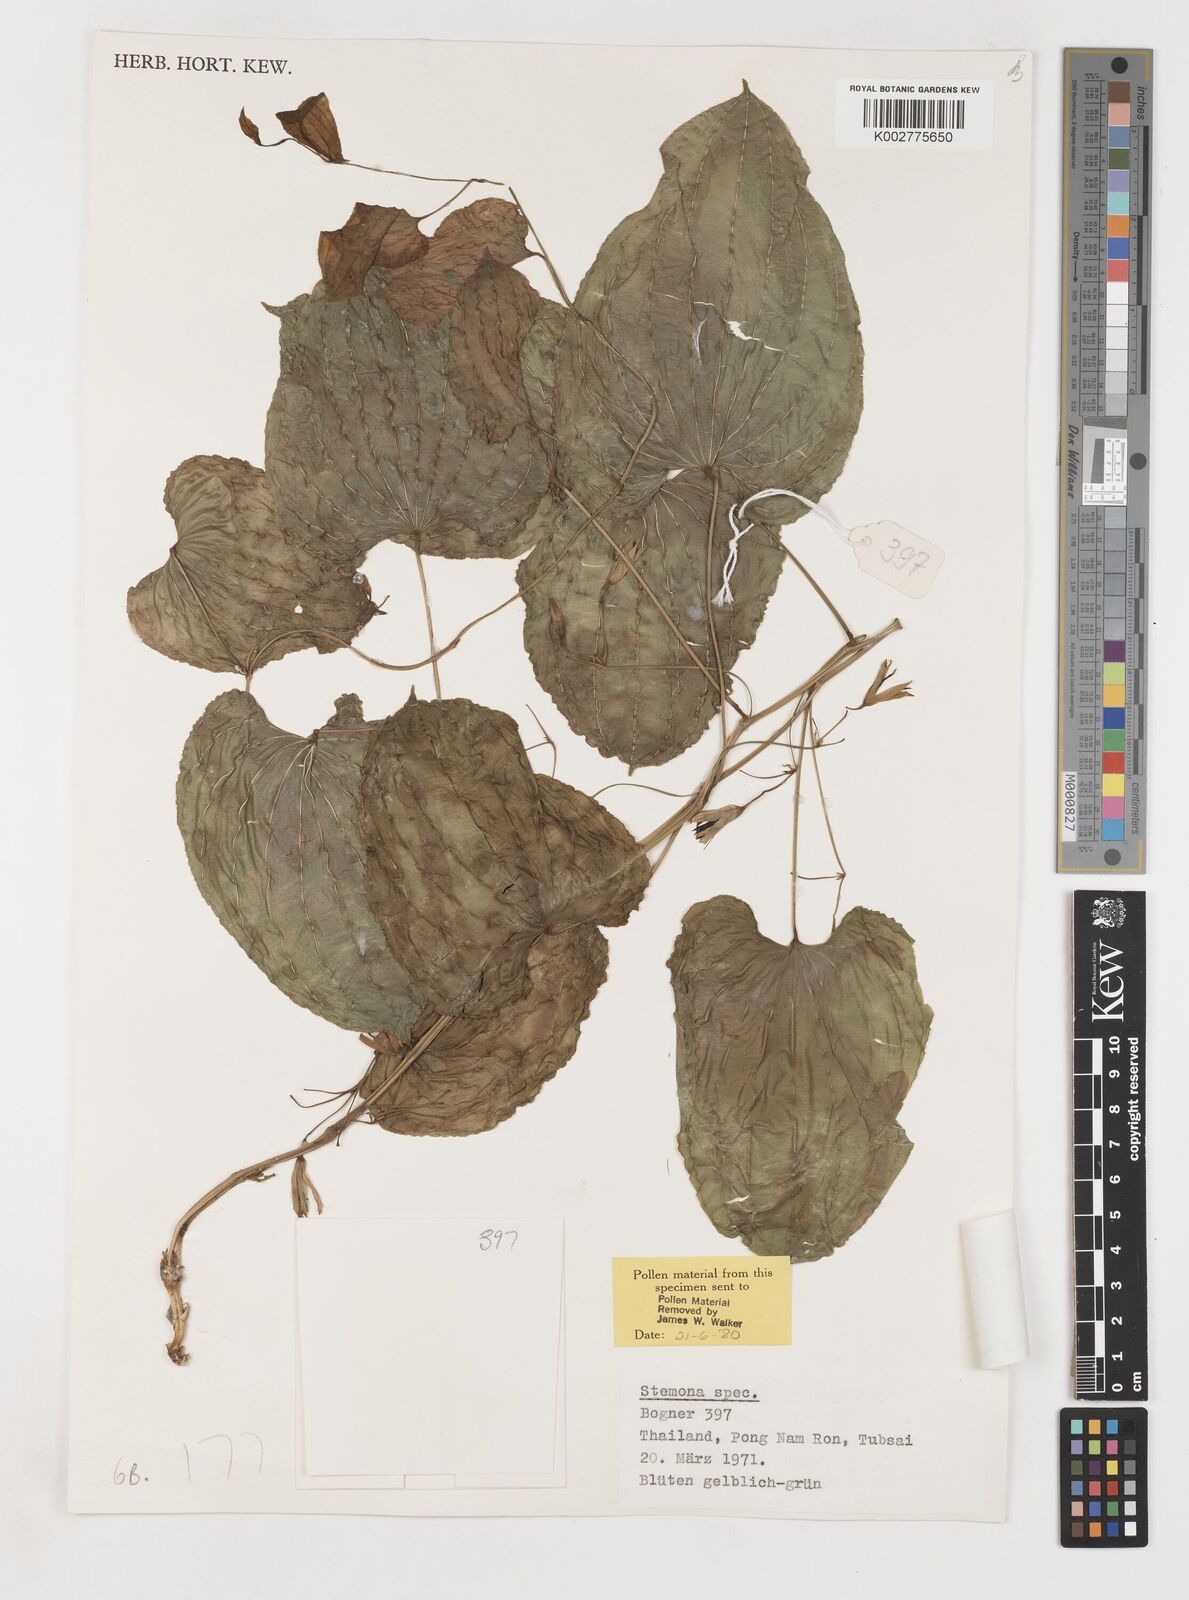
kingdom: Plantae
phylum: Tracheophyta
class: Liliopsida
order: Pandanales
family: Stemonaceae
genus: Stemona
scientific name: Stemona curtisii
